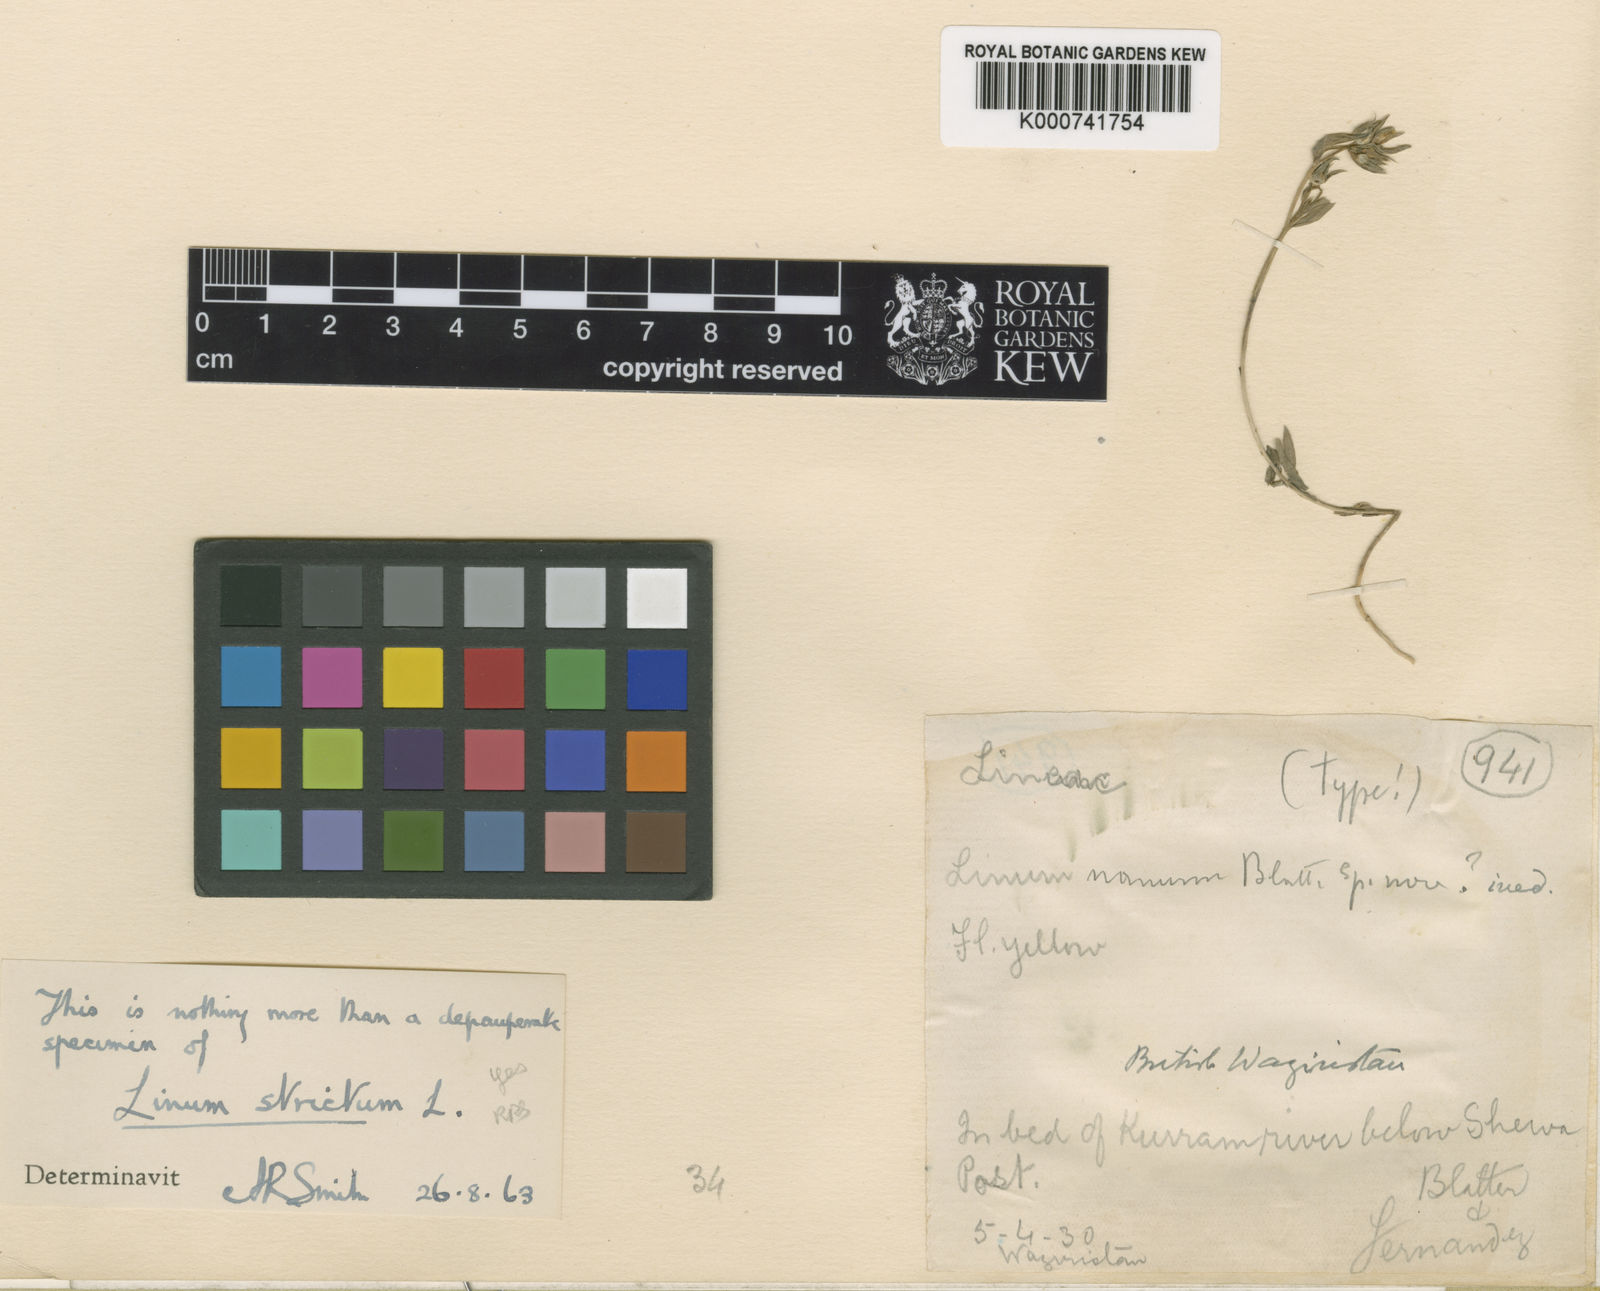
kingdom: Plantae
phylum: Tracheophyta
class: Magnoliopsida
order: Malpighiales
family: Linaceae
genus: Linum
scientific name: Linum strictum
